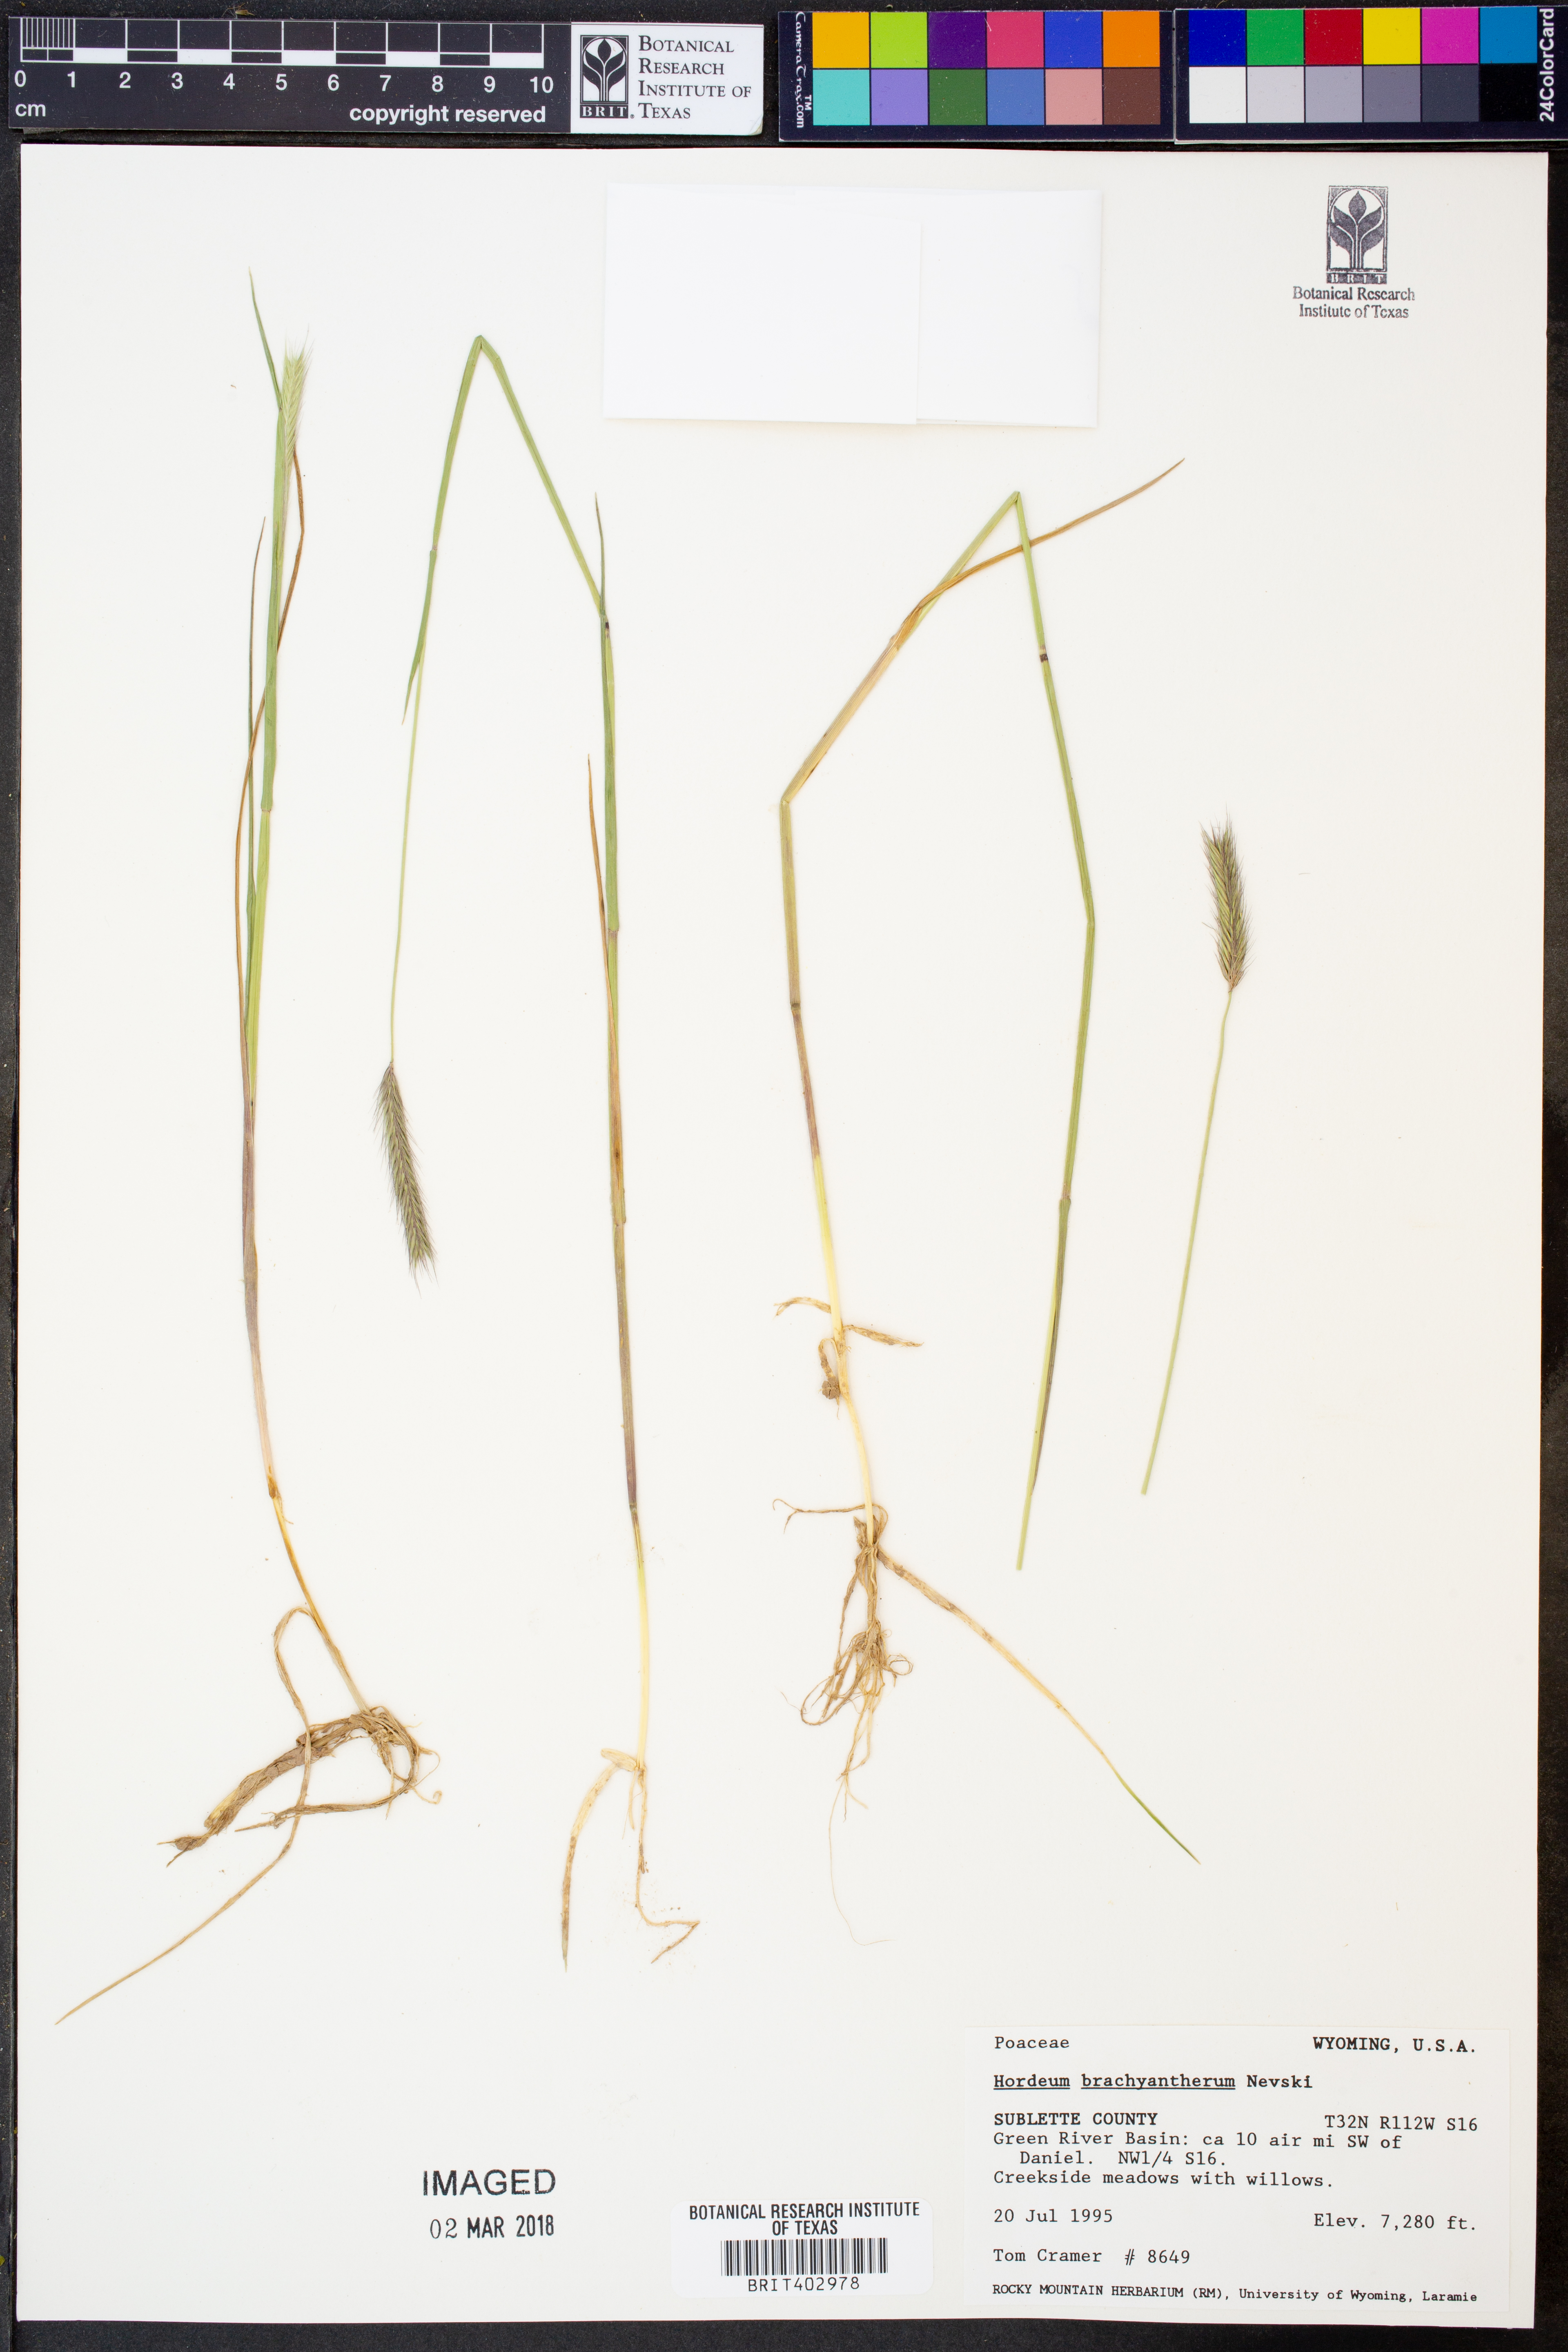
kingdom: Plantae
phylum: Tracheophyta
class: Liliopsida
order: Poales
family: Poaceae
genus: Hordeum
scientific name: Hordeum brachyantherum
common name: Meadow barley
